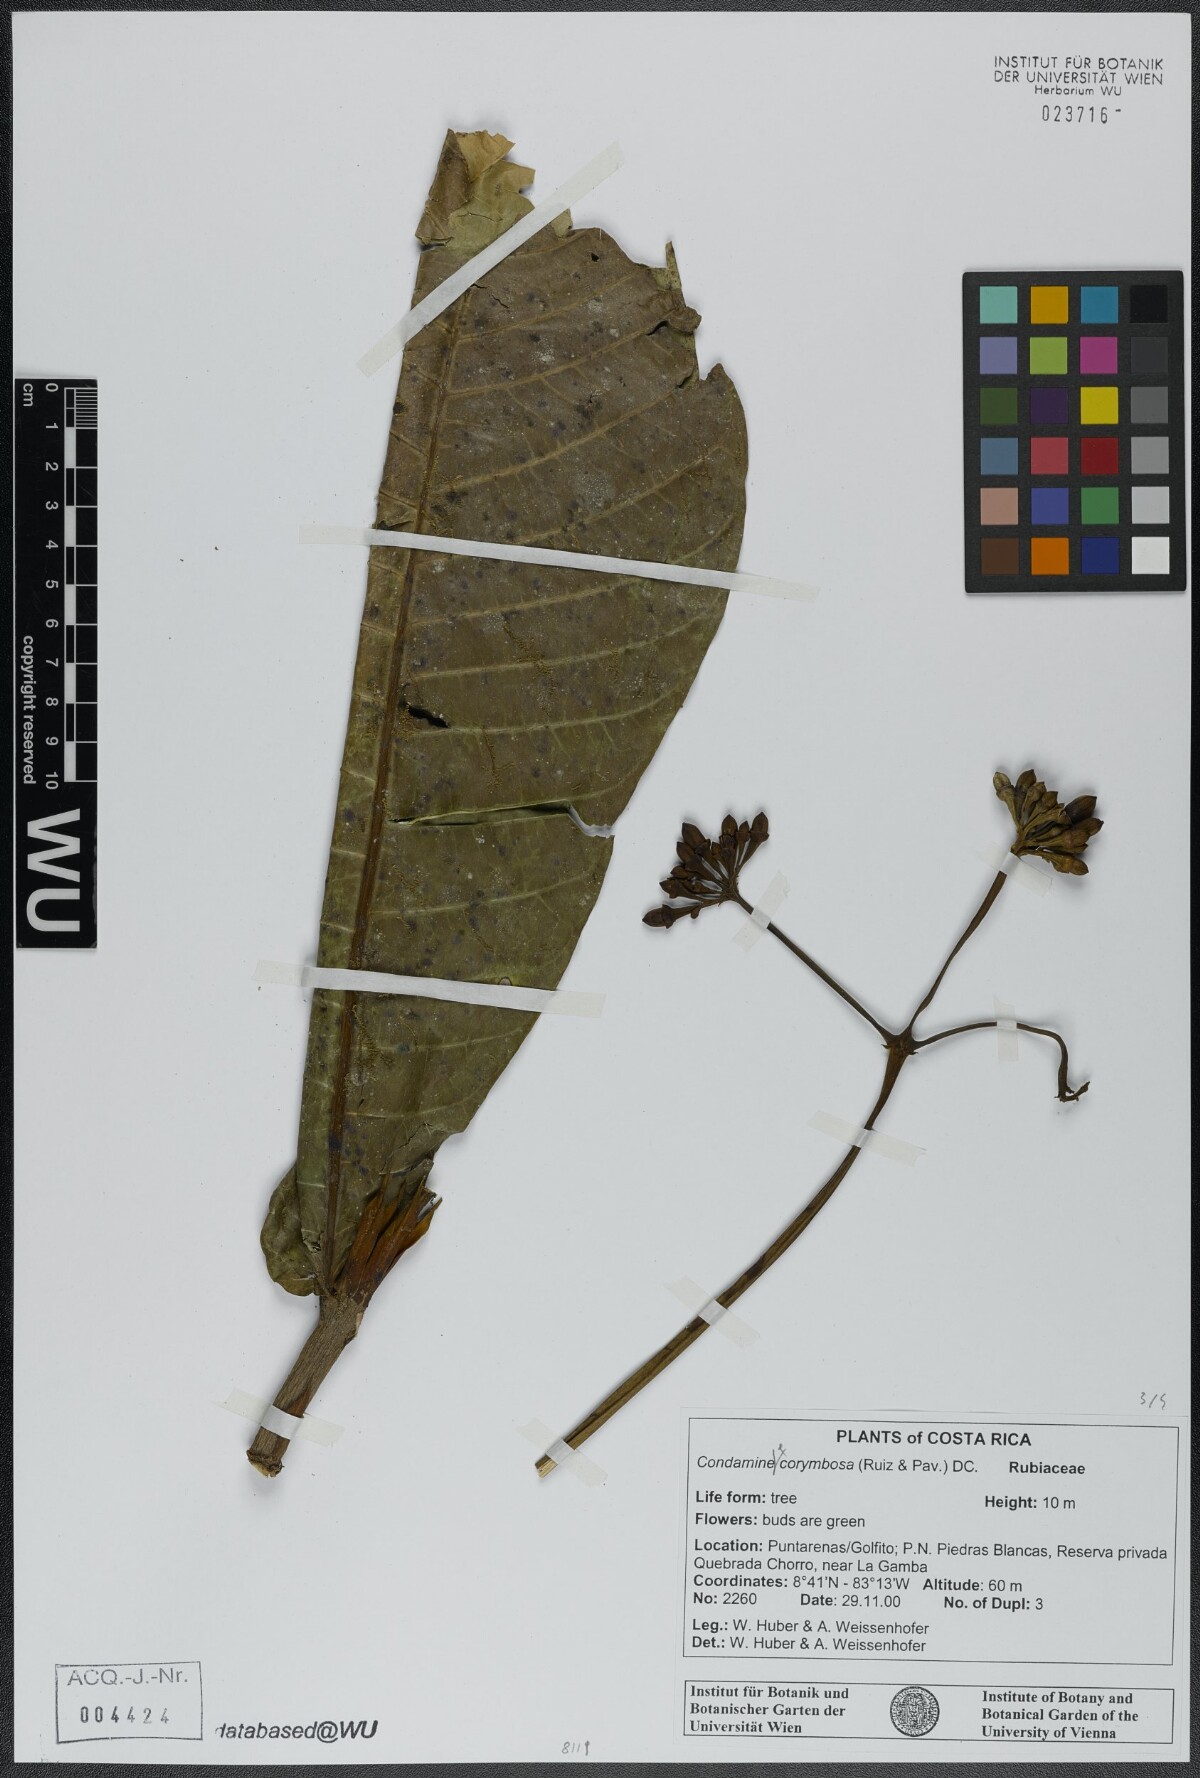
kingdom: Plantae
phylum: Tracheophyta
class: Magnoliopsida
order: Gentianales
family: Rubiaceae
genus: Condaminea
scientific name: Condaminea corymbosa
